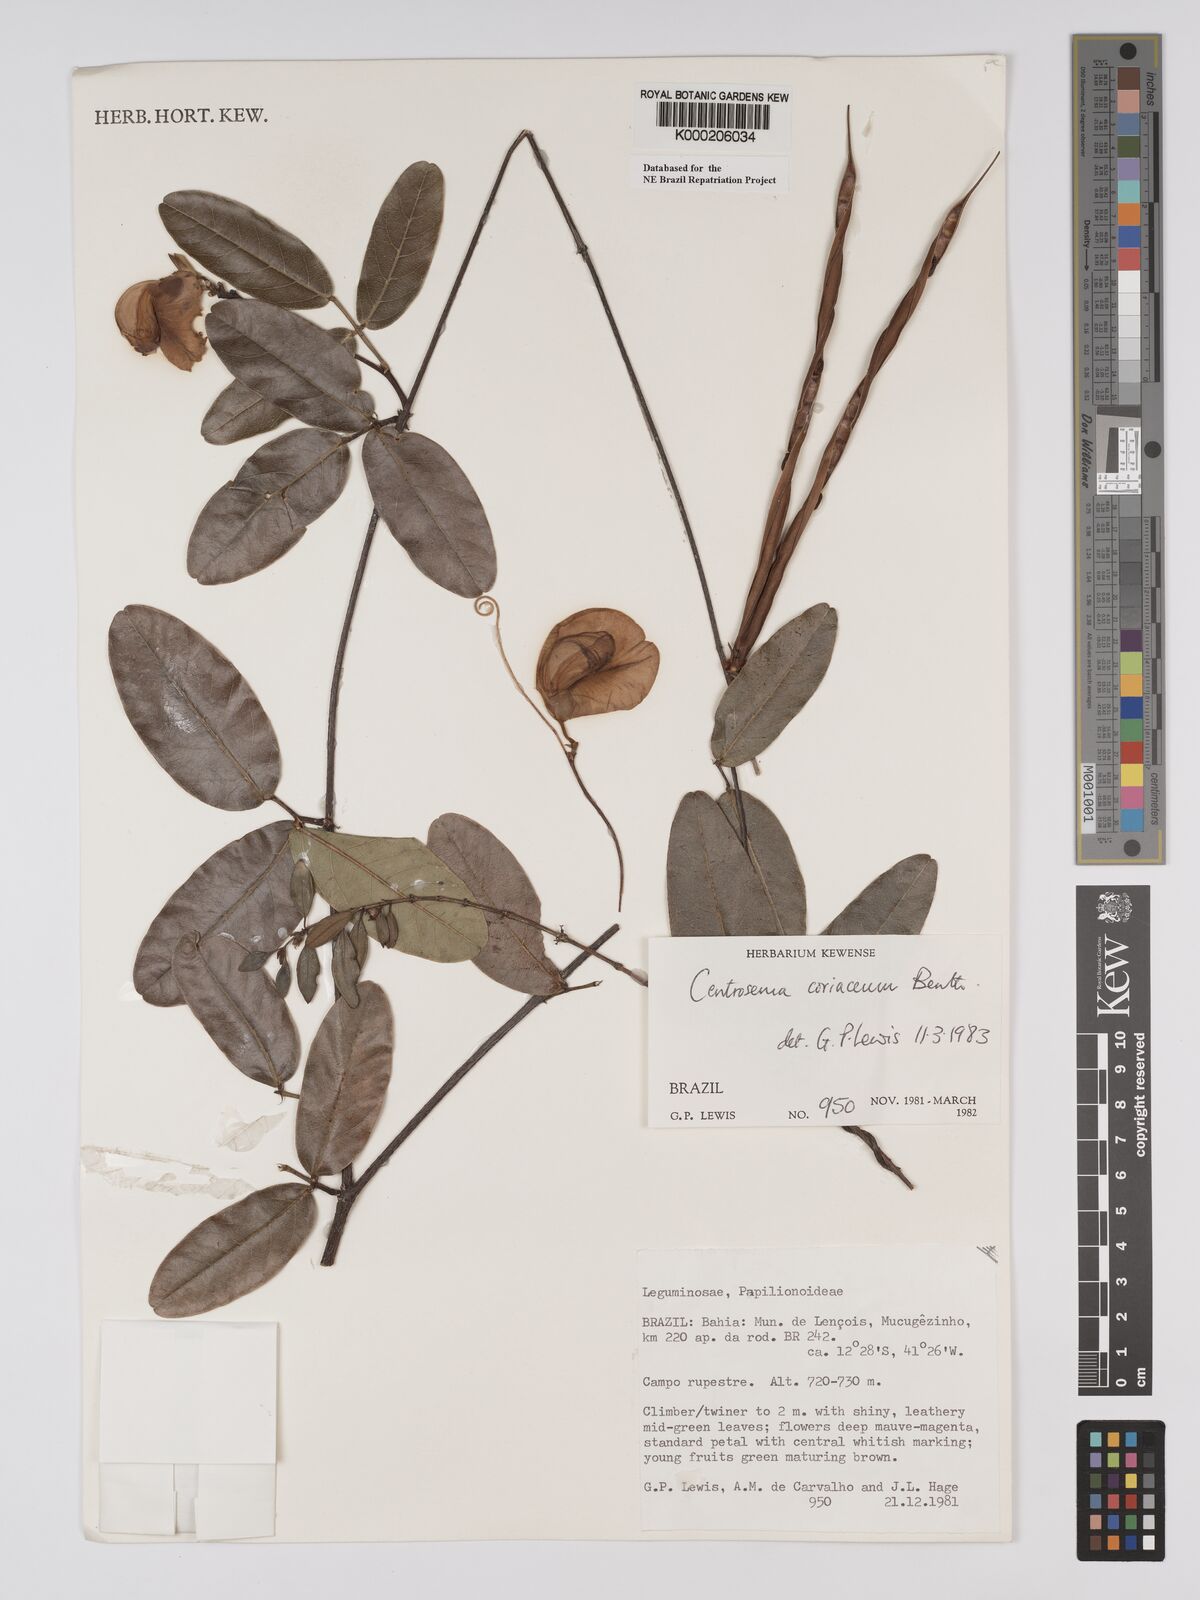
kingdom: Plantae
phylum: Tracheophyta
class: Magnoliopsida
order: Fabales
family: Fabaceae
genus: Centrosema
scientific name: Centrosema coriaceum
